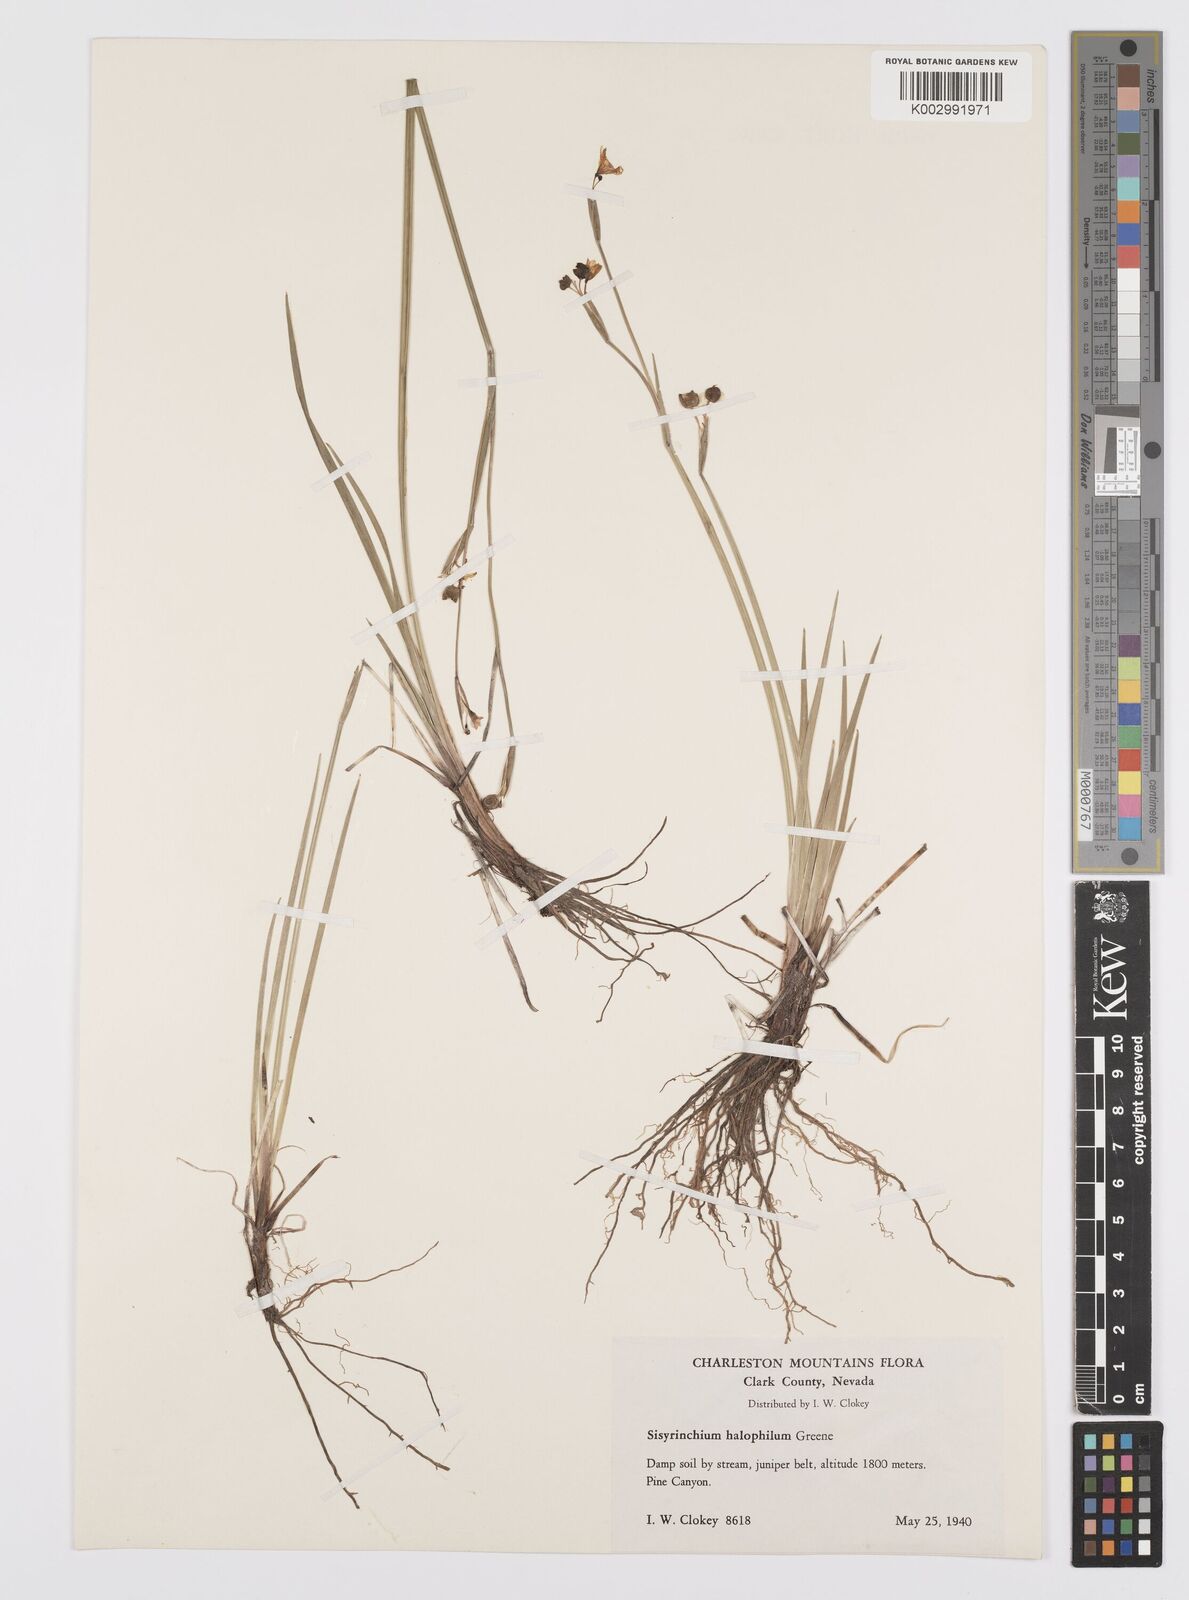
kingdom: Plantae
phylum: Tracheophyta
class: Liliopsida
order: Asparagales
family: Iridaceae
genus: Sisyrinchium
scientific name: Sisyrinchium halophilum
